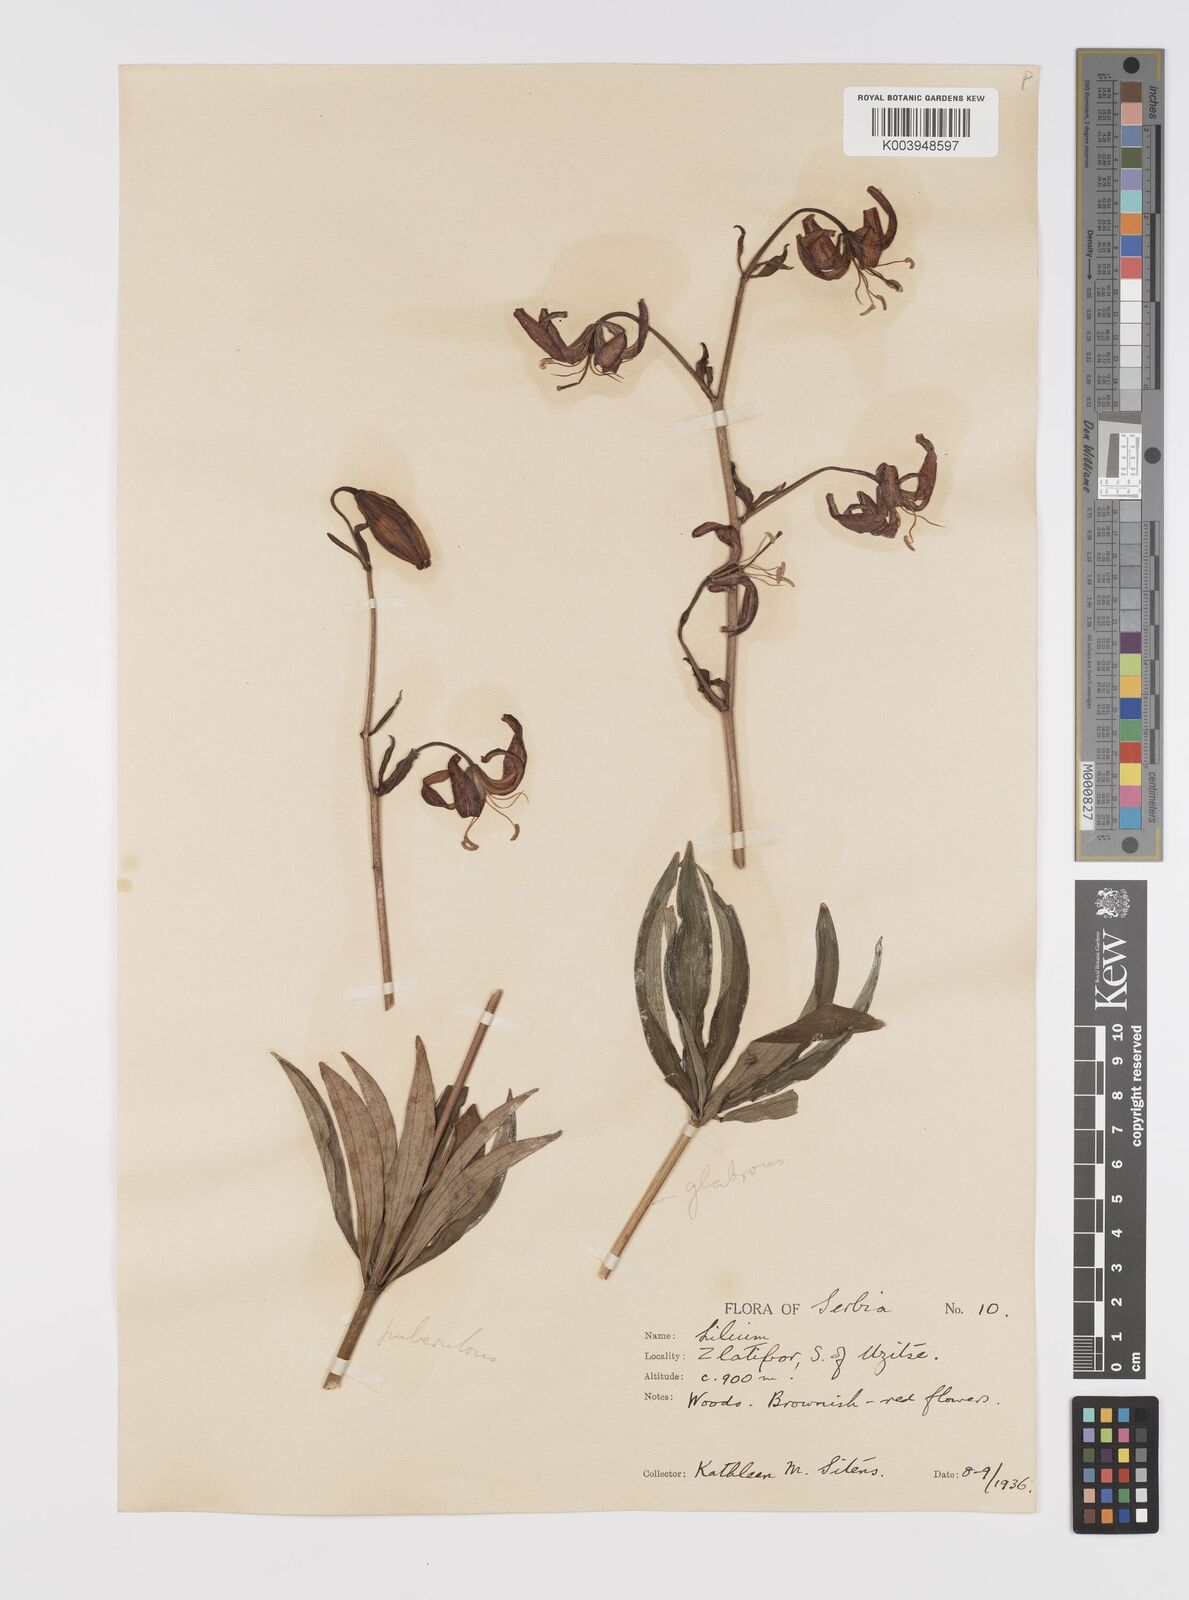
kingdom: Plantae
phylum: Tracheophyta
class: Liliopsida
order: Liliales
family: Liliaceae
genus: Lilium
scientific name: Lilium martagon
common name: Martagon lily
